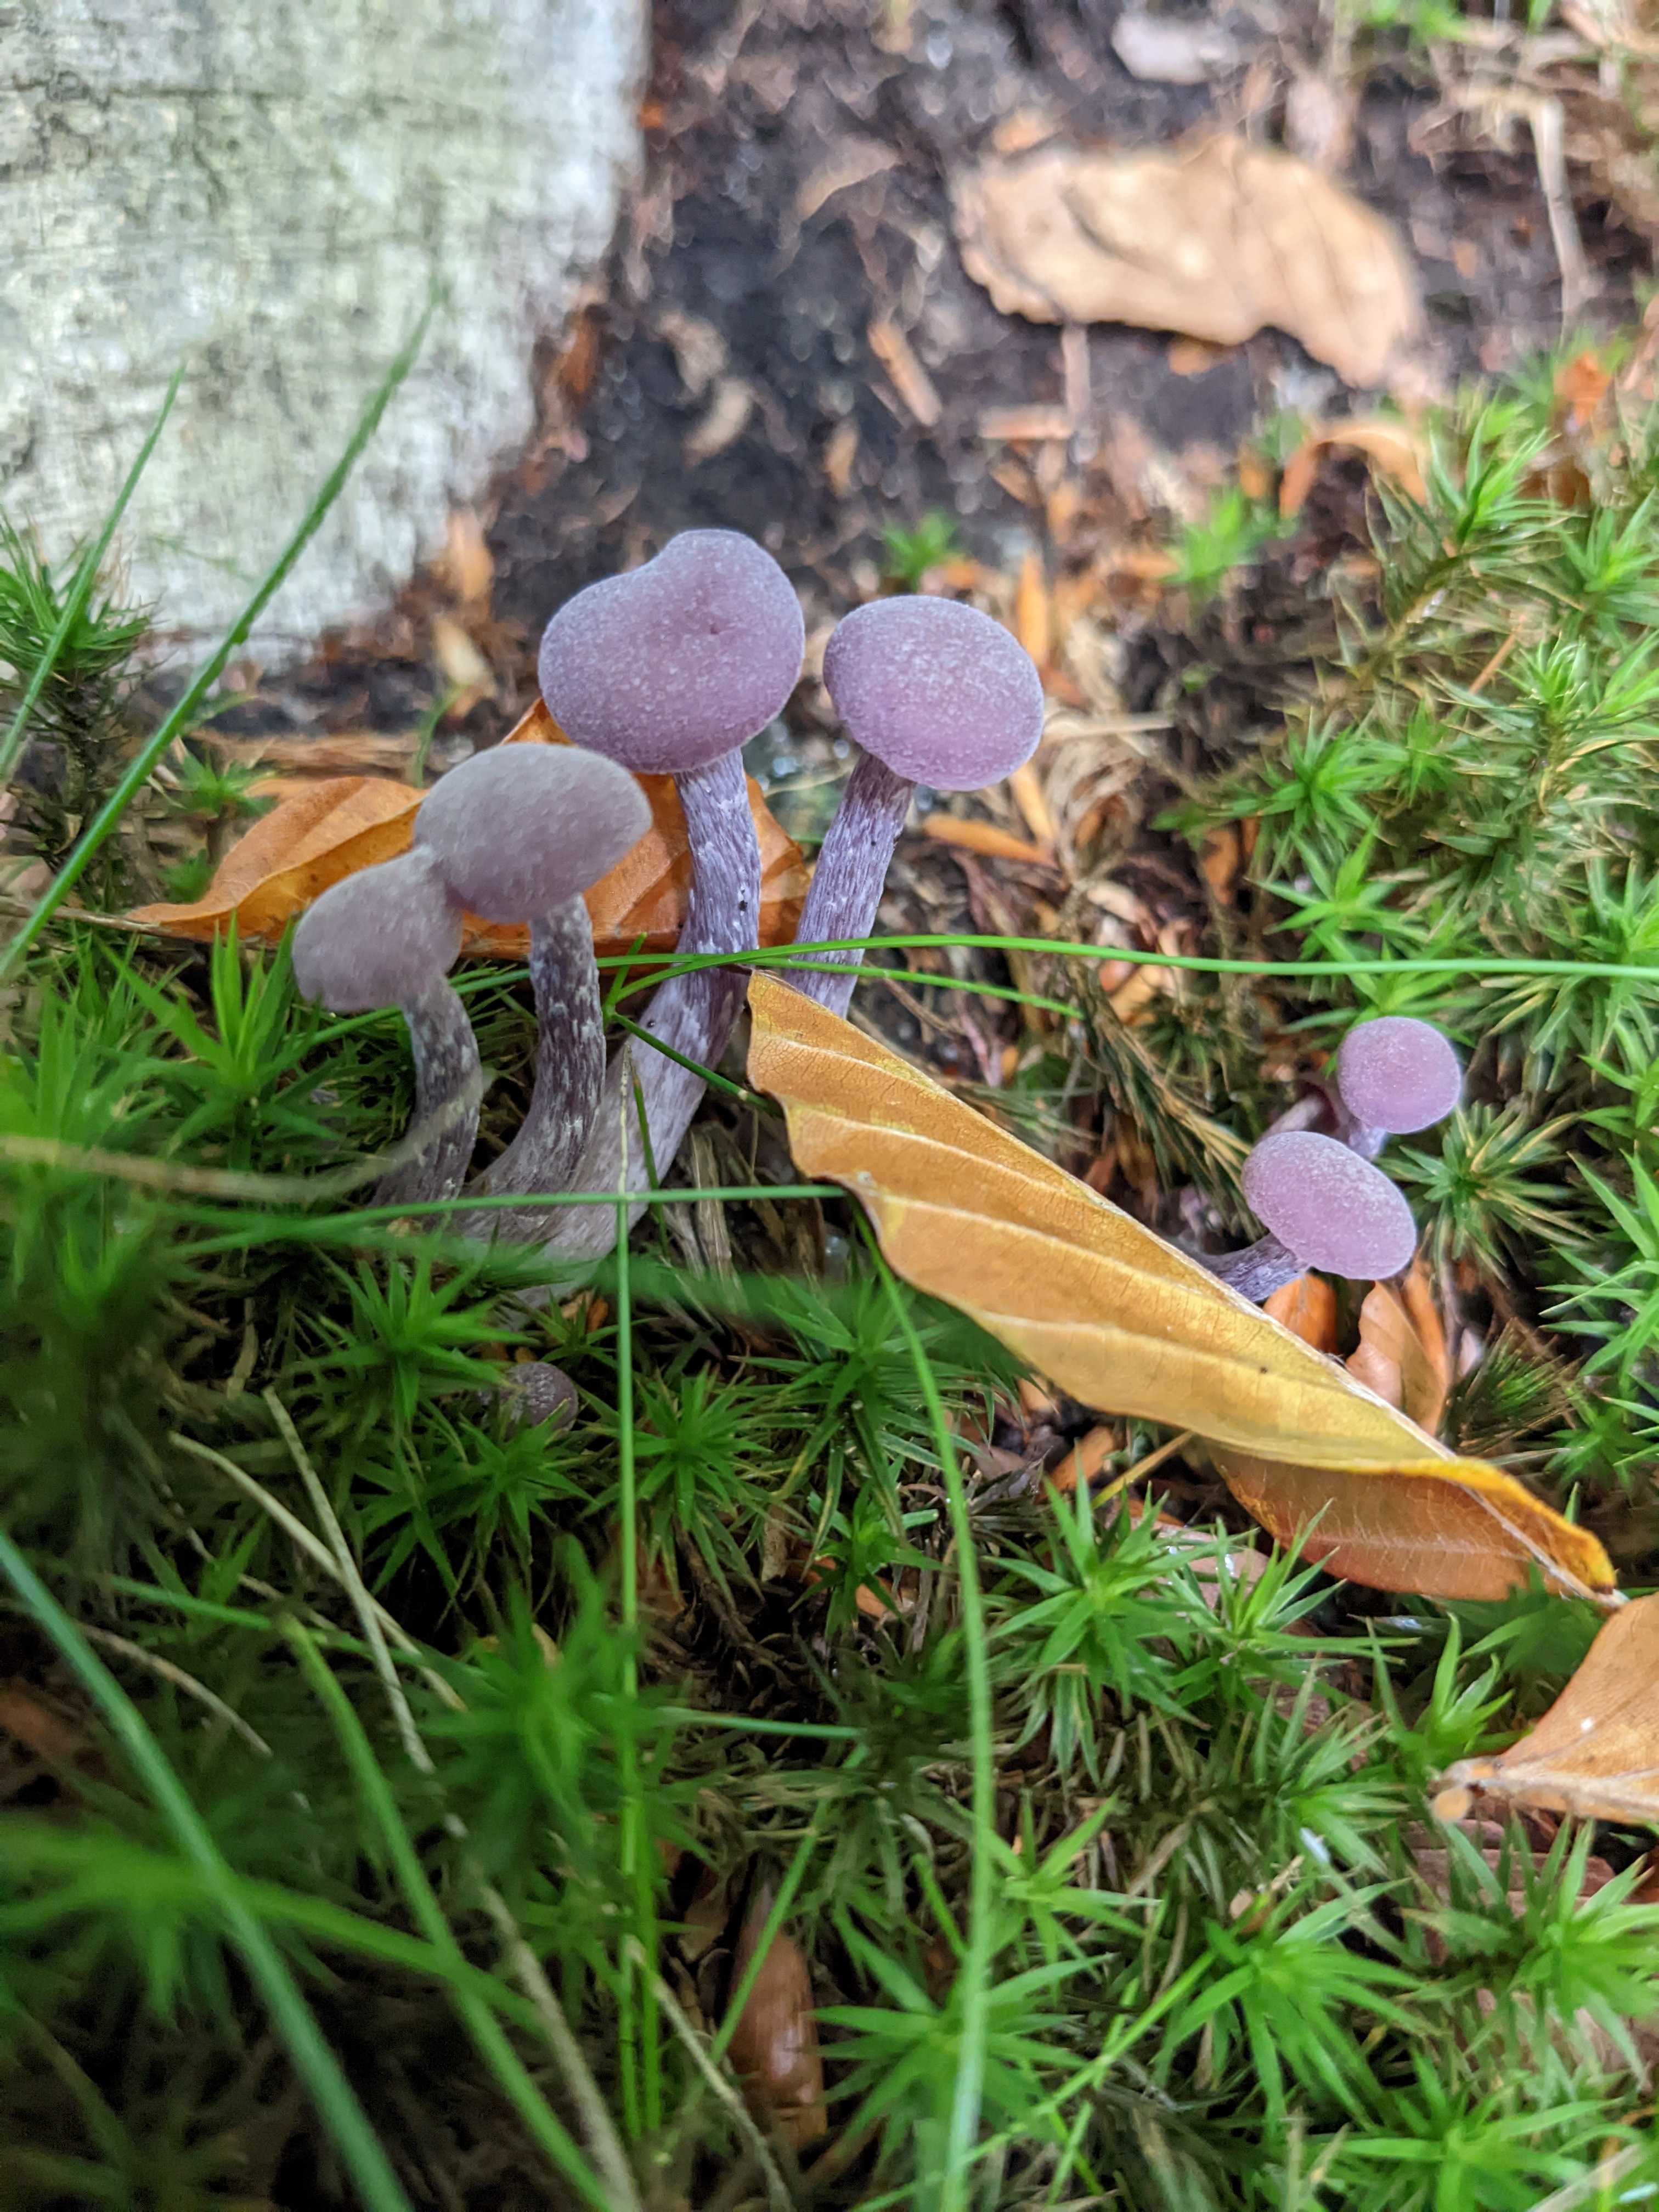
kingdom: Fungi
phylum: Basidiomycota
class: Agaricomycetes
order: Agaricales
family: Hydnangiaceae
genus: Laccaria
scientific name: Laccaria amethystina
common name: violet ametysthat
